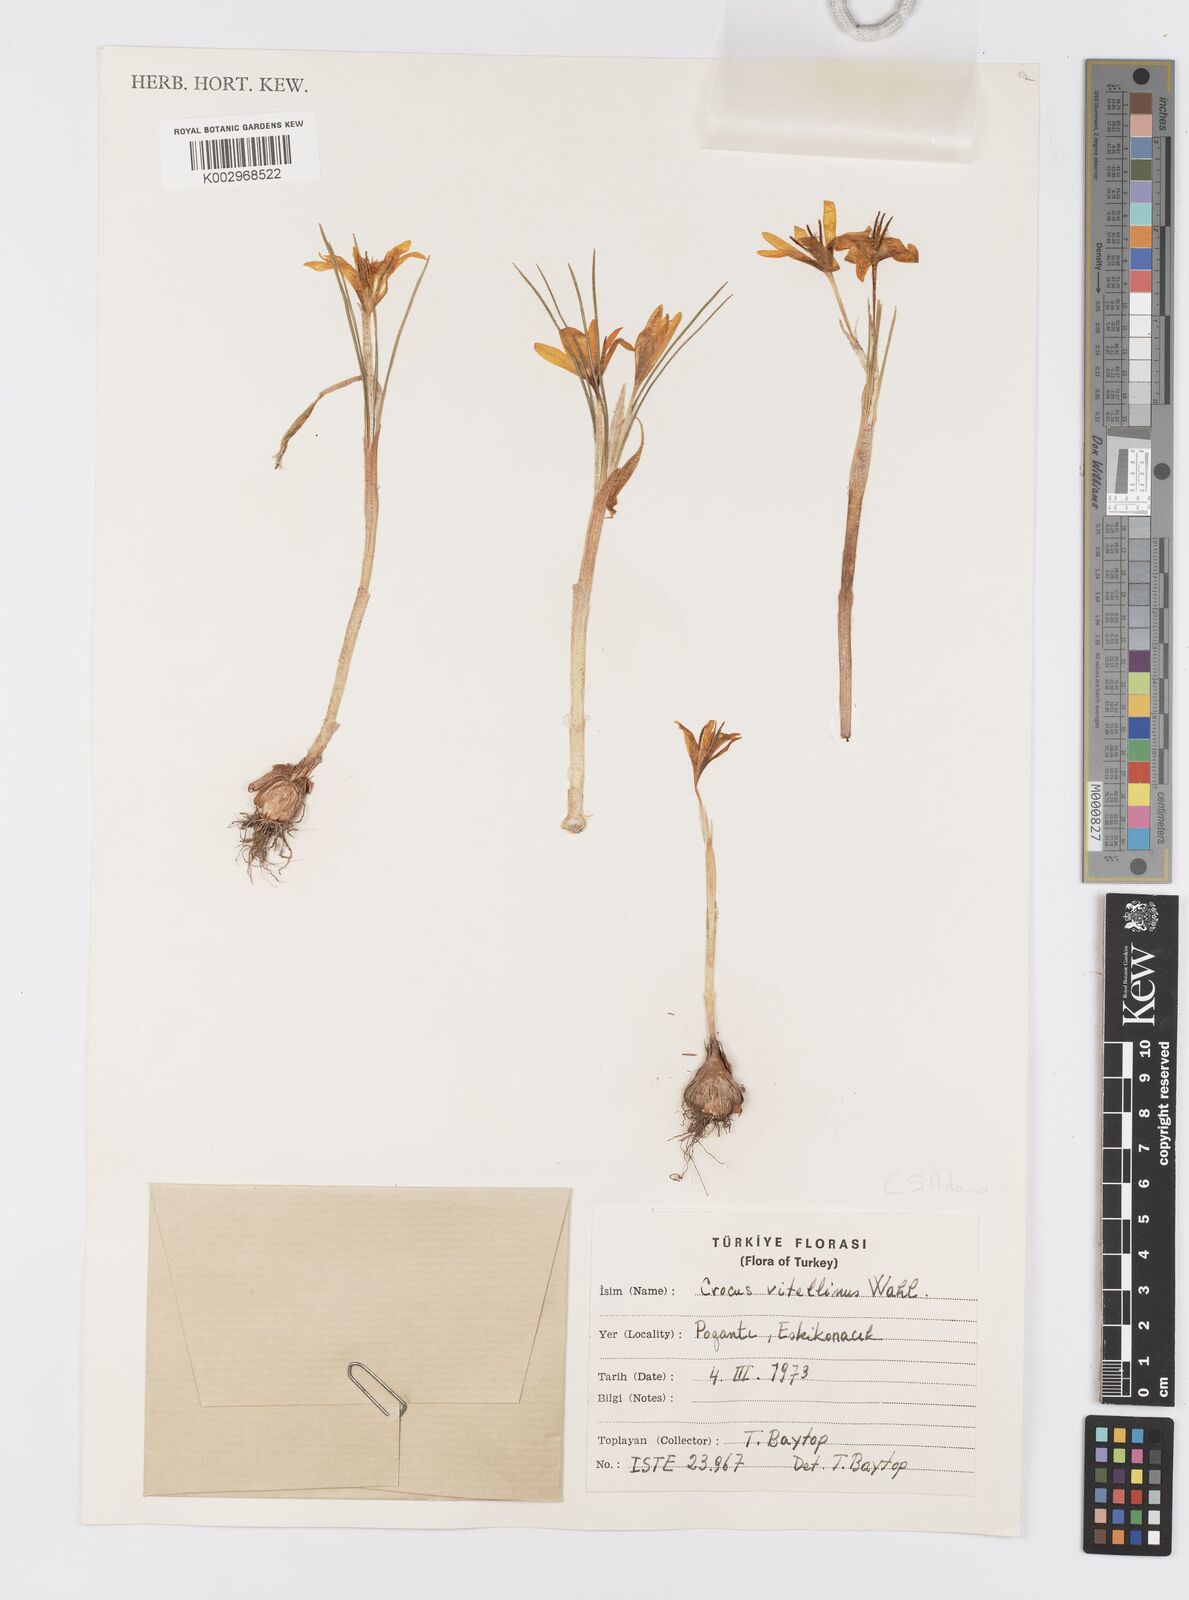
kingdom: Plantae
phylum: Tracheophyta
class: Liliopsida
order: Asparagales
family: Iridaceae
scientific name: Iridaceae
